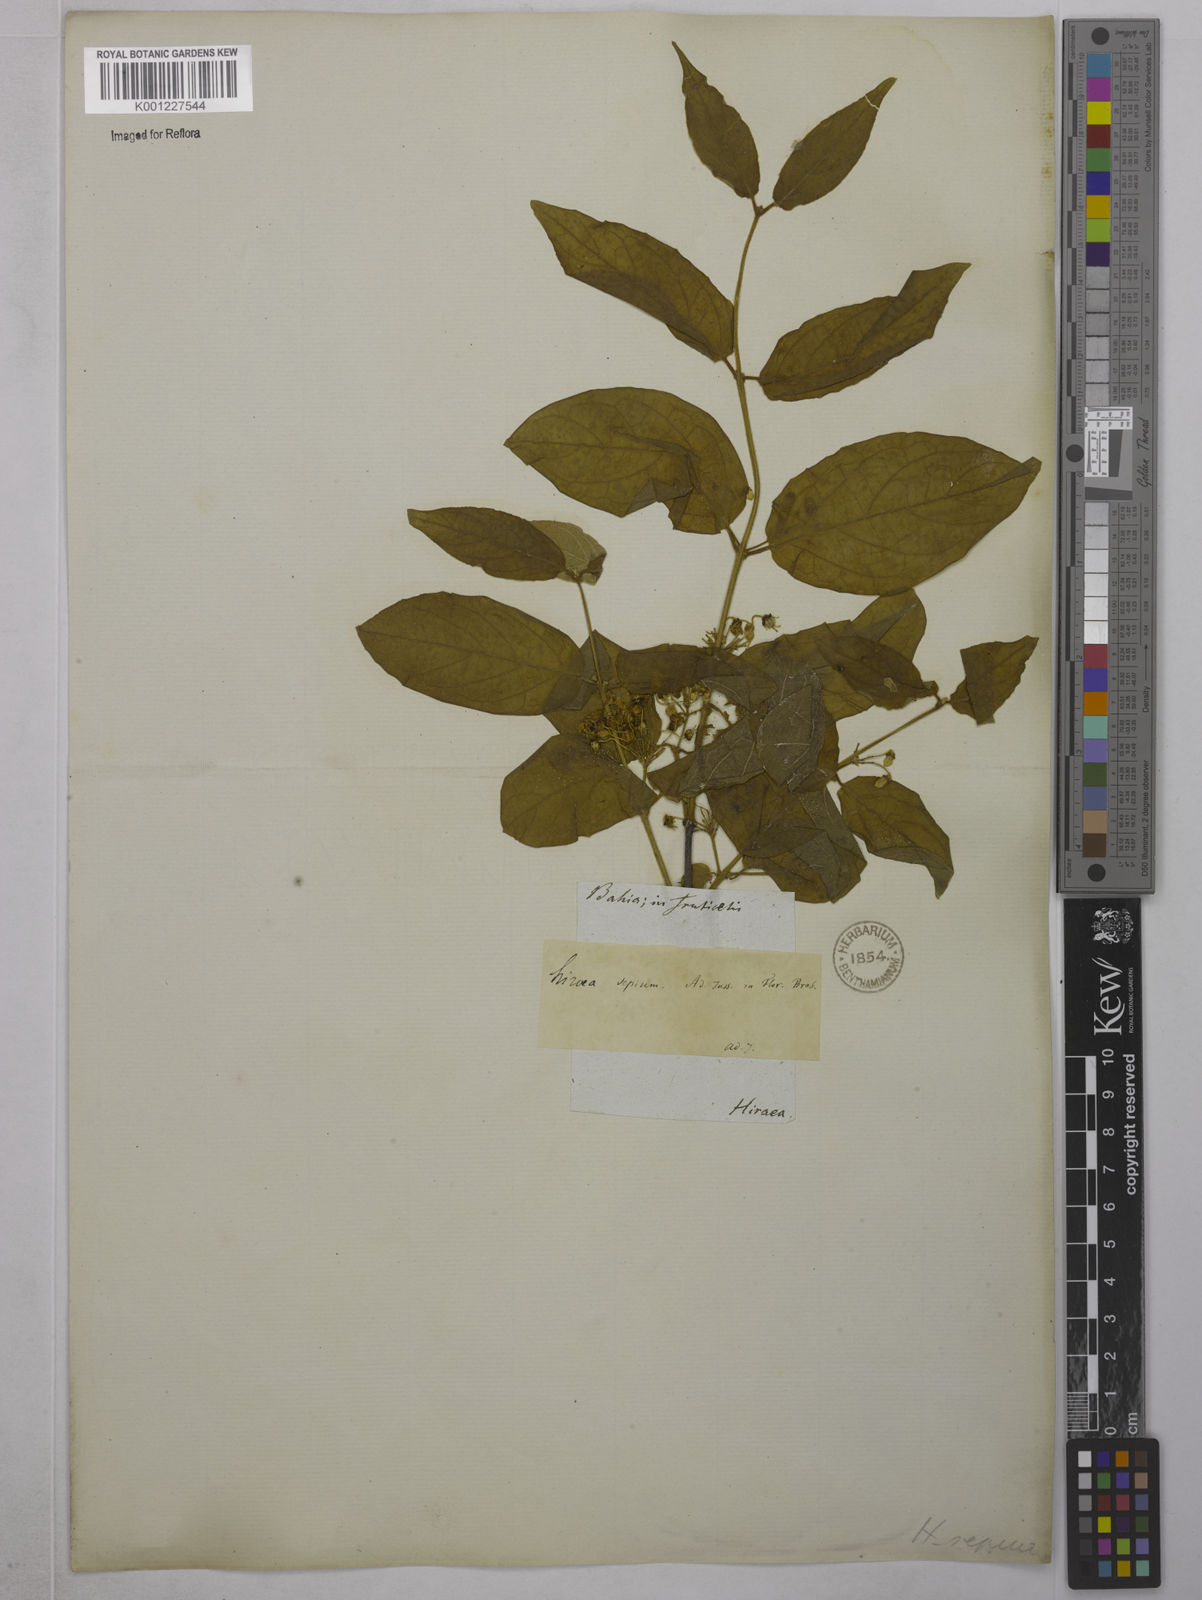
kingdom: Plantae
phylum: Tracheophyta
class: Magnoliopsida
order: Malpighiales
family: Malpighiaceae
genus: Mascagnia
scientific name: Mascagnia sepium
